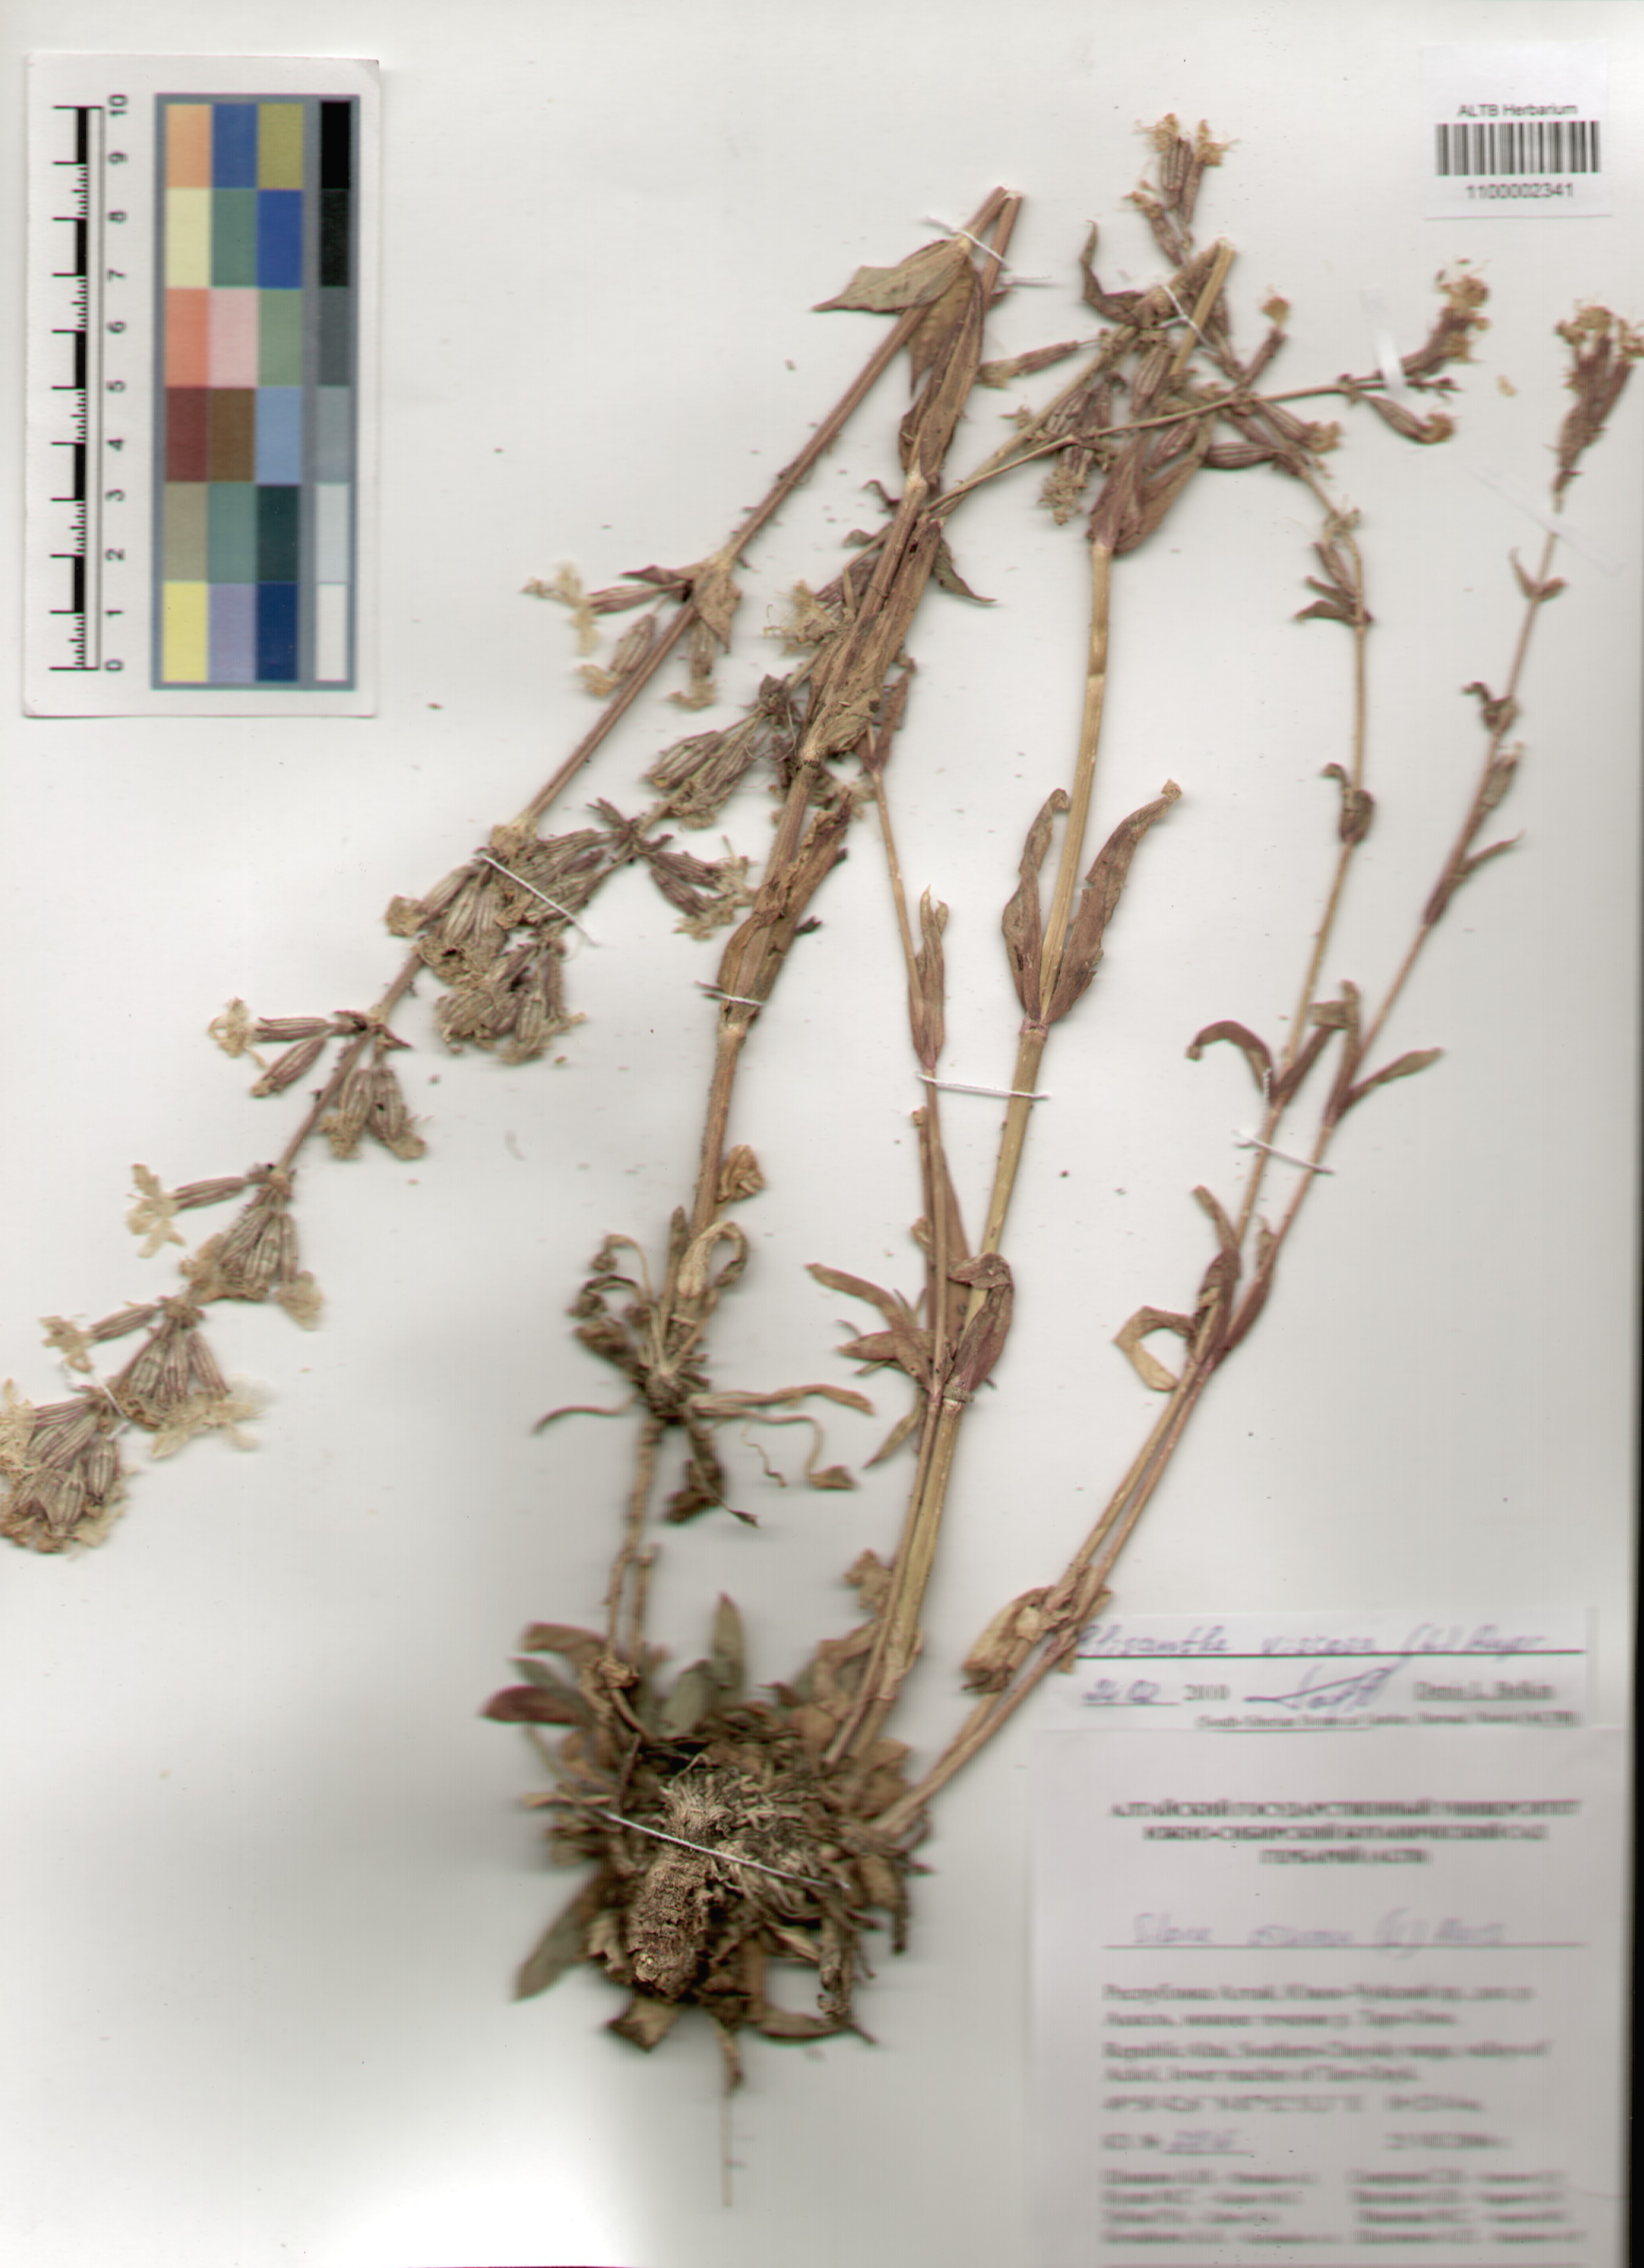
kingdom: Plantae
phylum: Tracheophyta
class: Magnoliopsida
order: Caryophyllales
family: Caryophyllaceae
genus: Silene
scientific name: Silene viscosa
